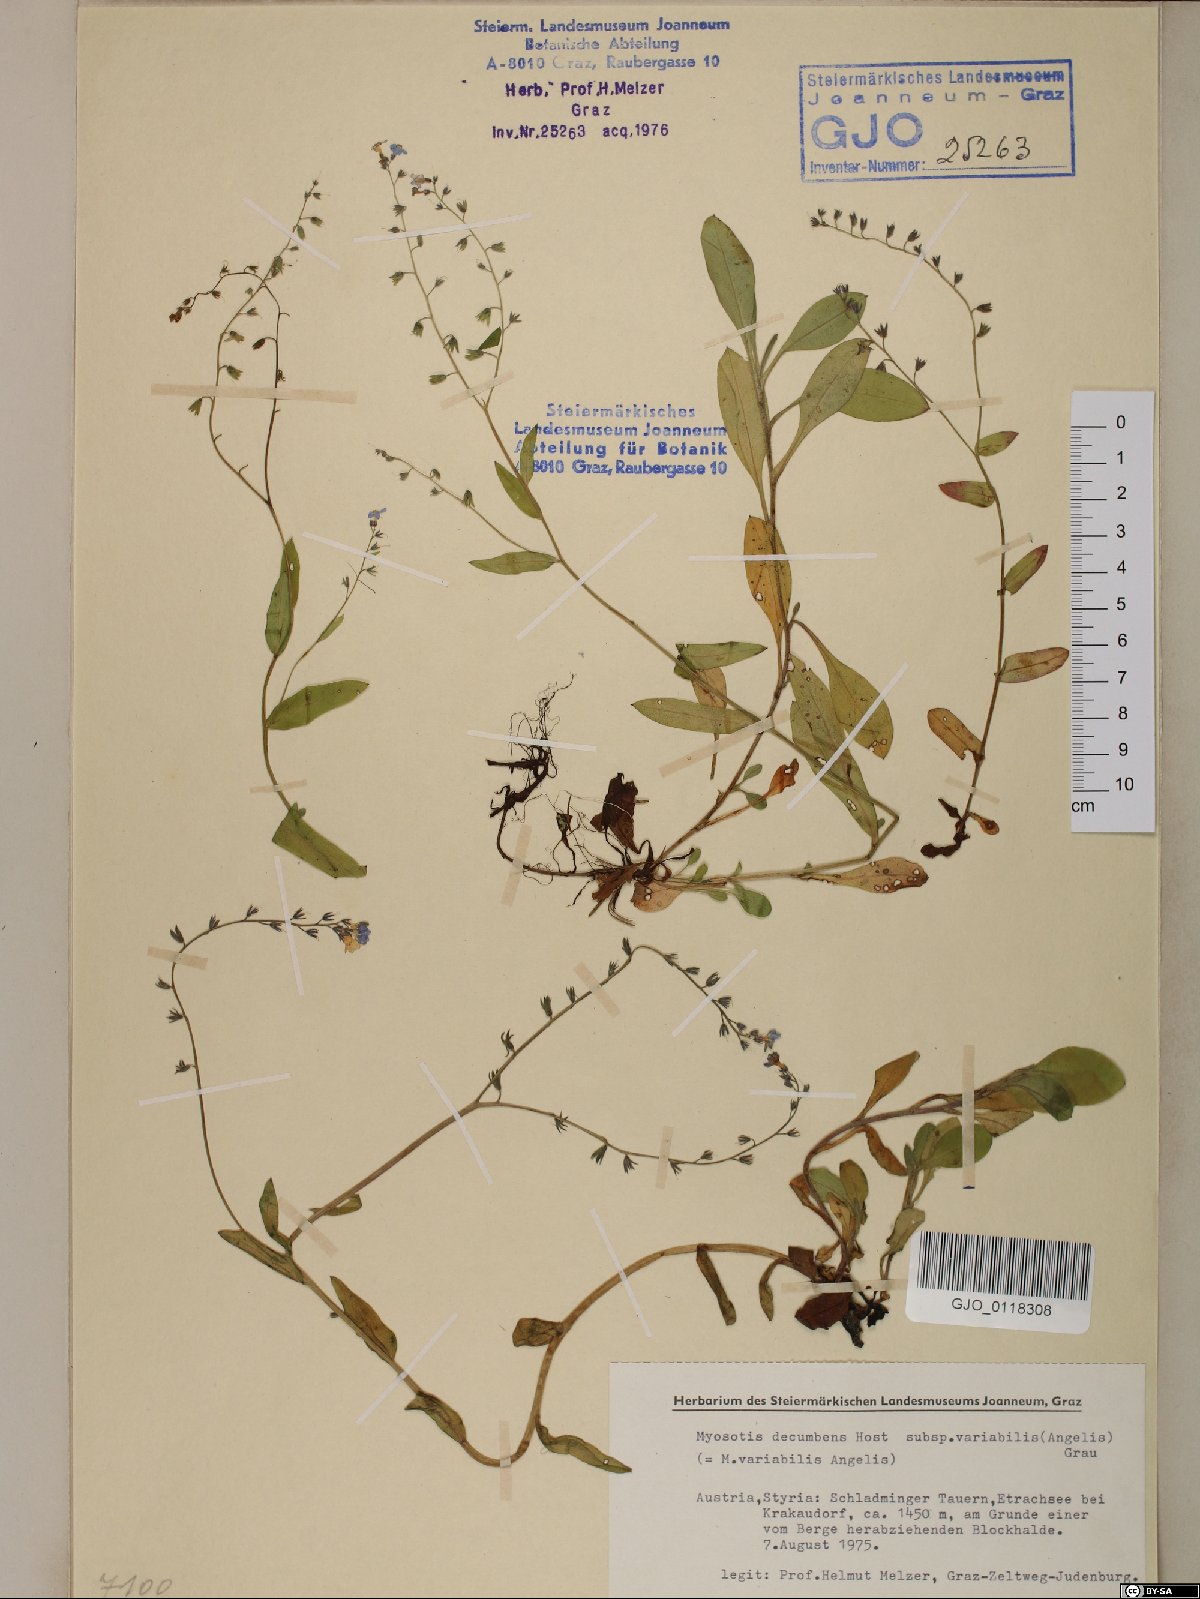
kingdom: Plantae
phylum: Tracheophyta
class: Magnoliopsida
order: Boraginales
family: Boraginaceae
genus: Myosotis
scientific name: Myosotis decumbens
